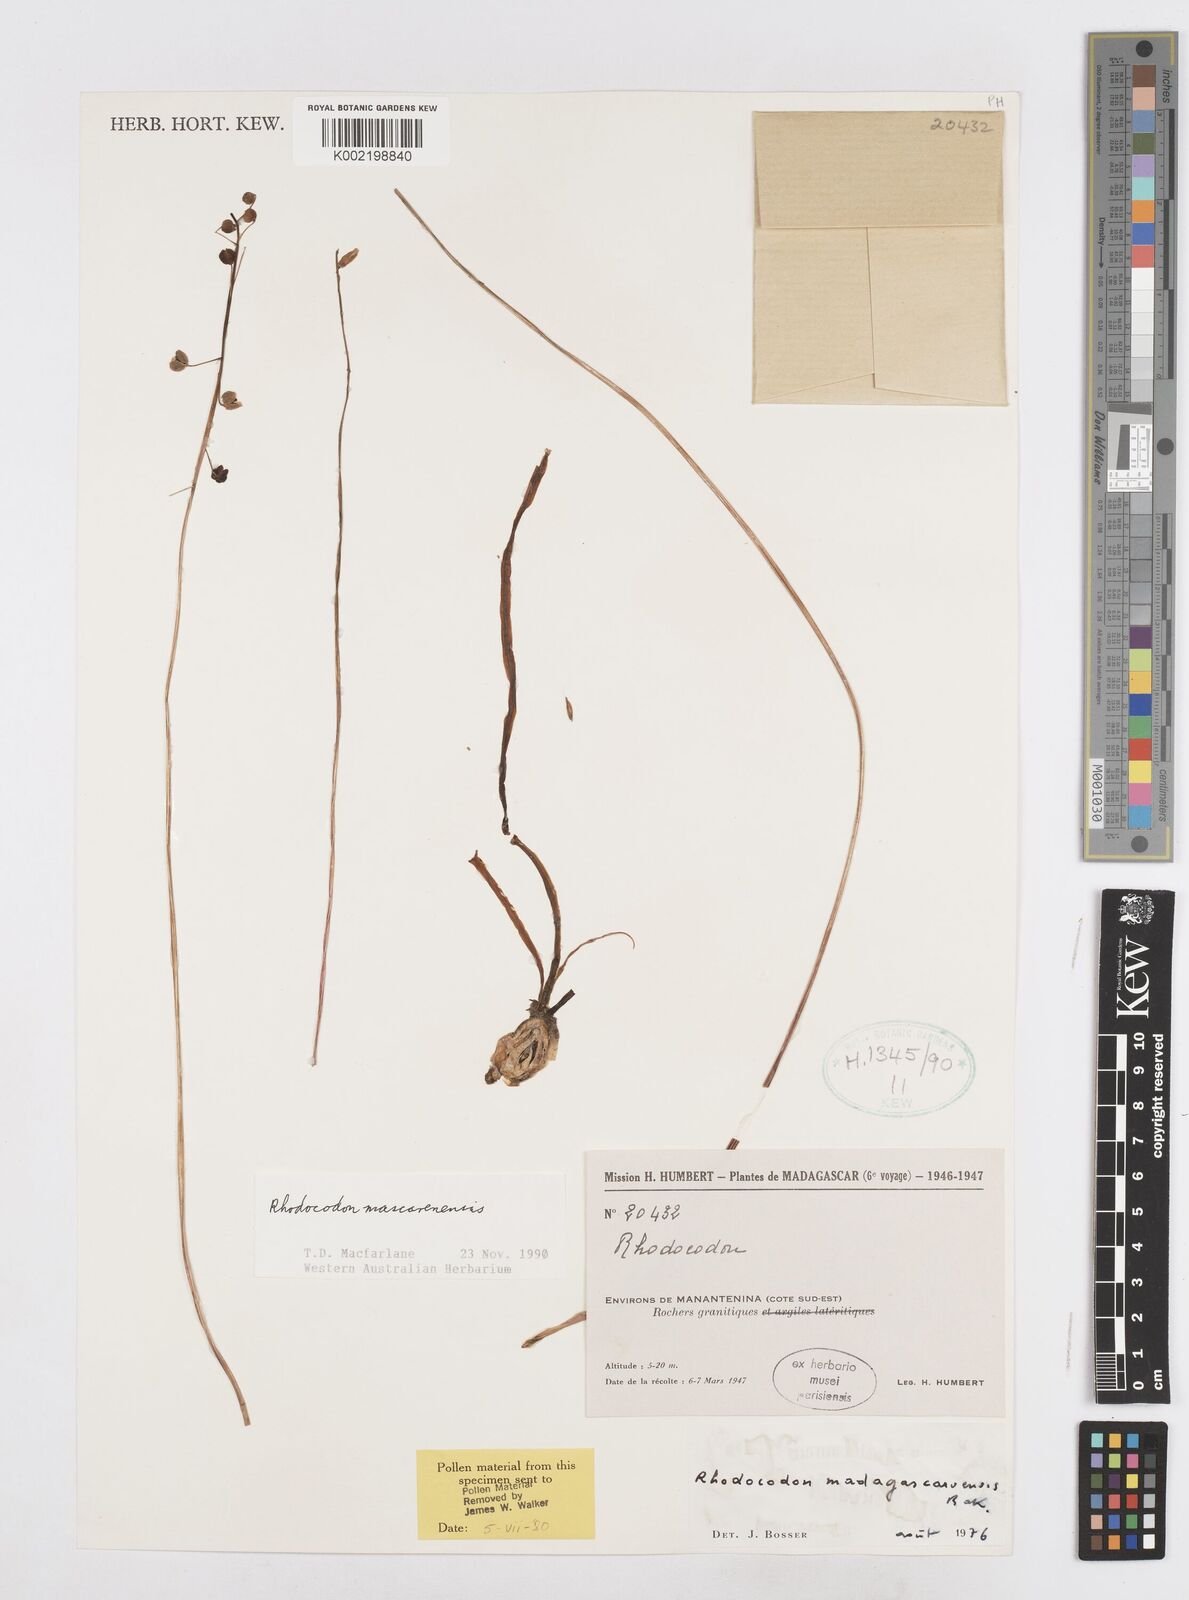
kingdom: Plantae
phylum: Tracheophyta
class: Liliopsida
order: Asparagales
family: Asparagaceae
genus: Drimia
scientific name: Drimia
